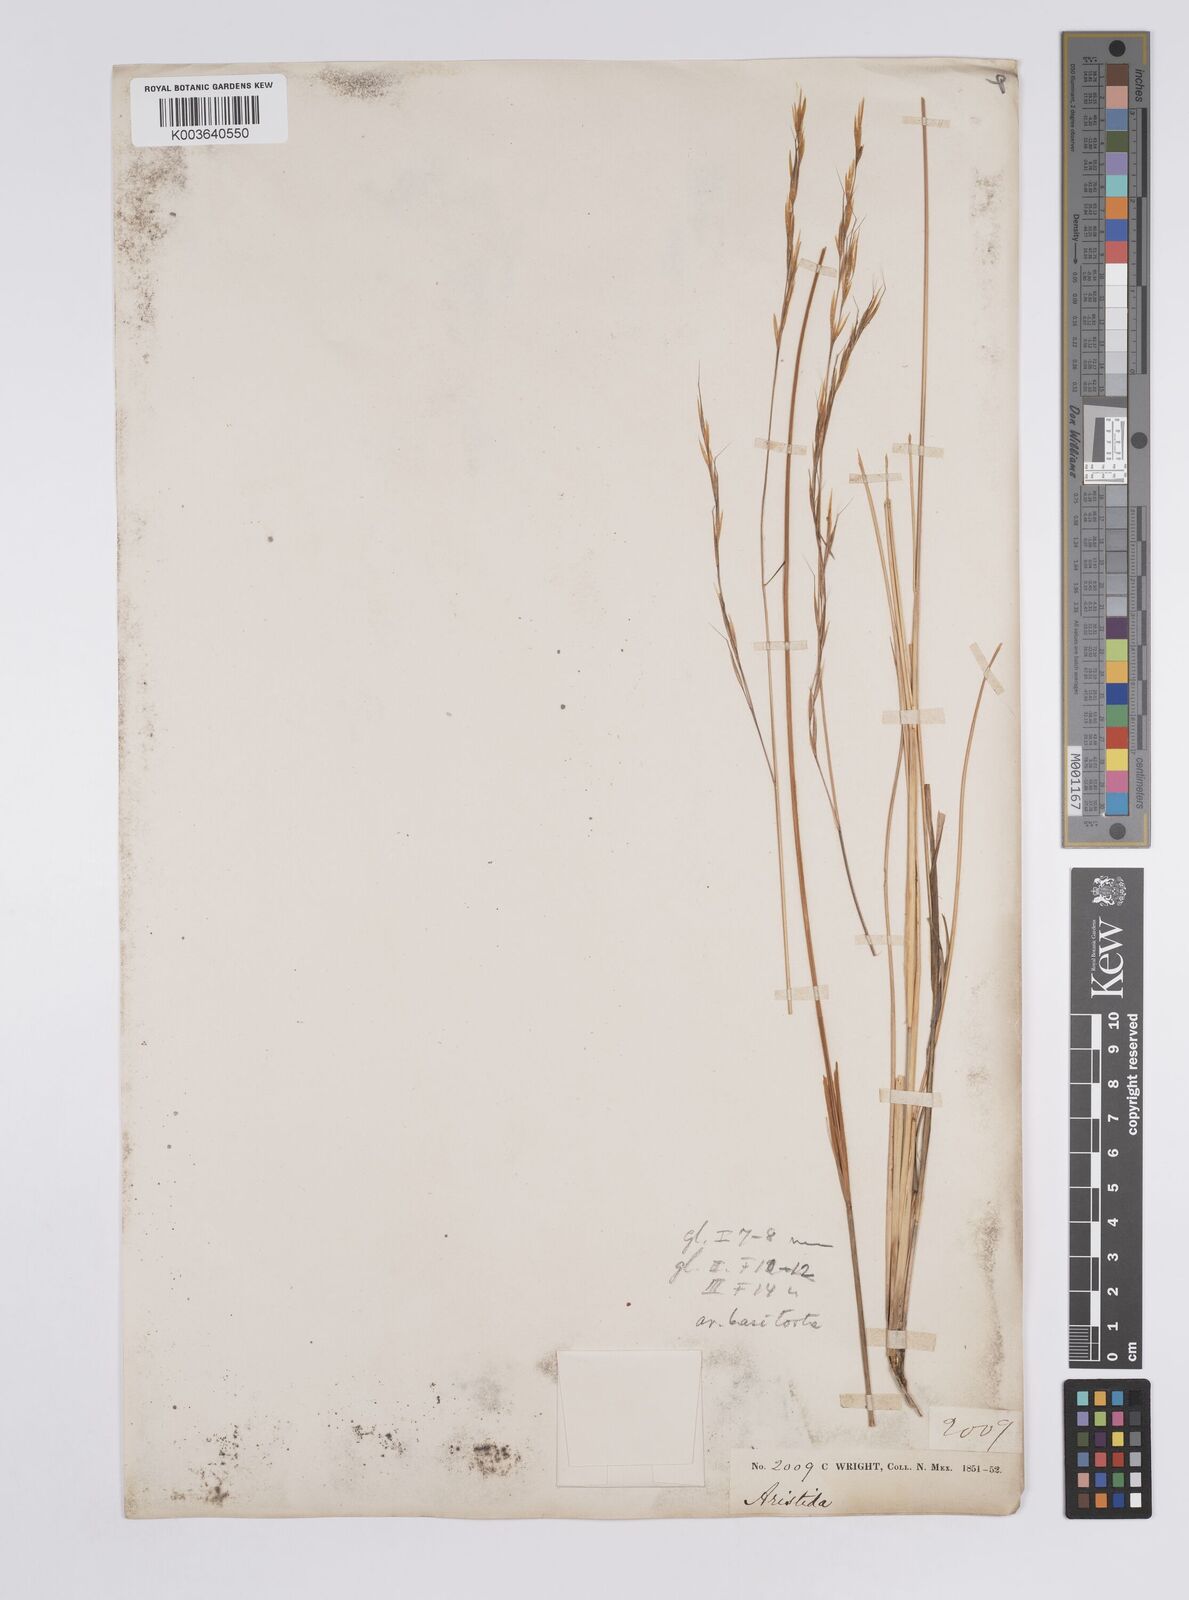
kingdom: Plantae
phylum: Tracheophyta
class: Liliopsida
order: Poales
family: Poaceae
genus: Aristida
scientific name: Aristida schiedeana
